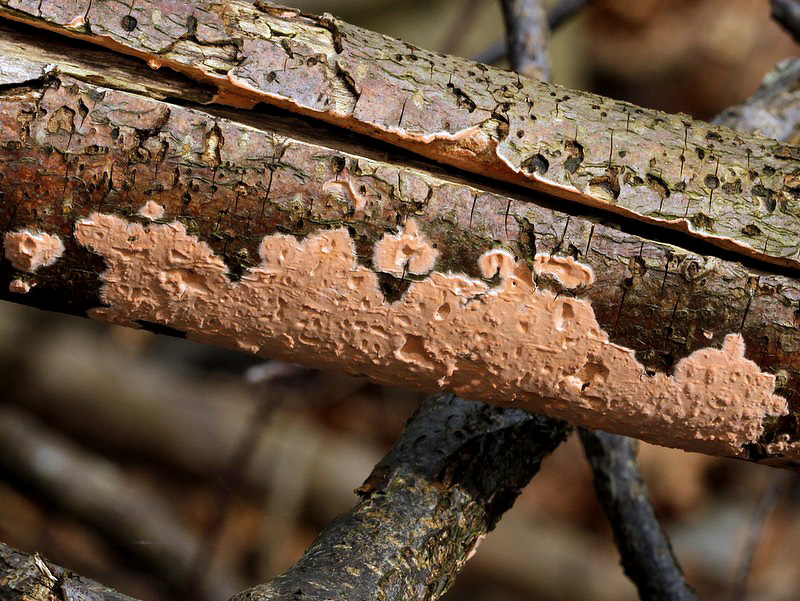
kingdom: Fungi
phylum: Basidiomycota
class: Agaricomycetes
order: Russulales
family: Peniophoraceae
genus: Peniophora
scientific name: Peniophora incarnata
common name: laksefarvet voksskind
